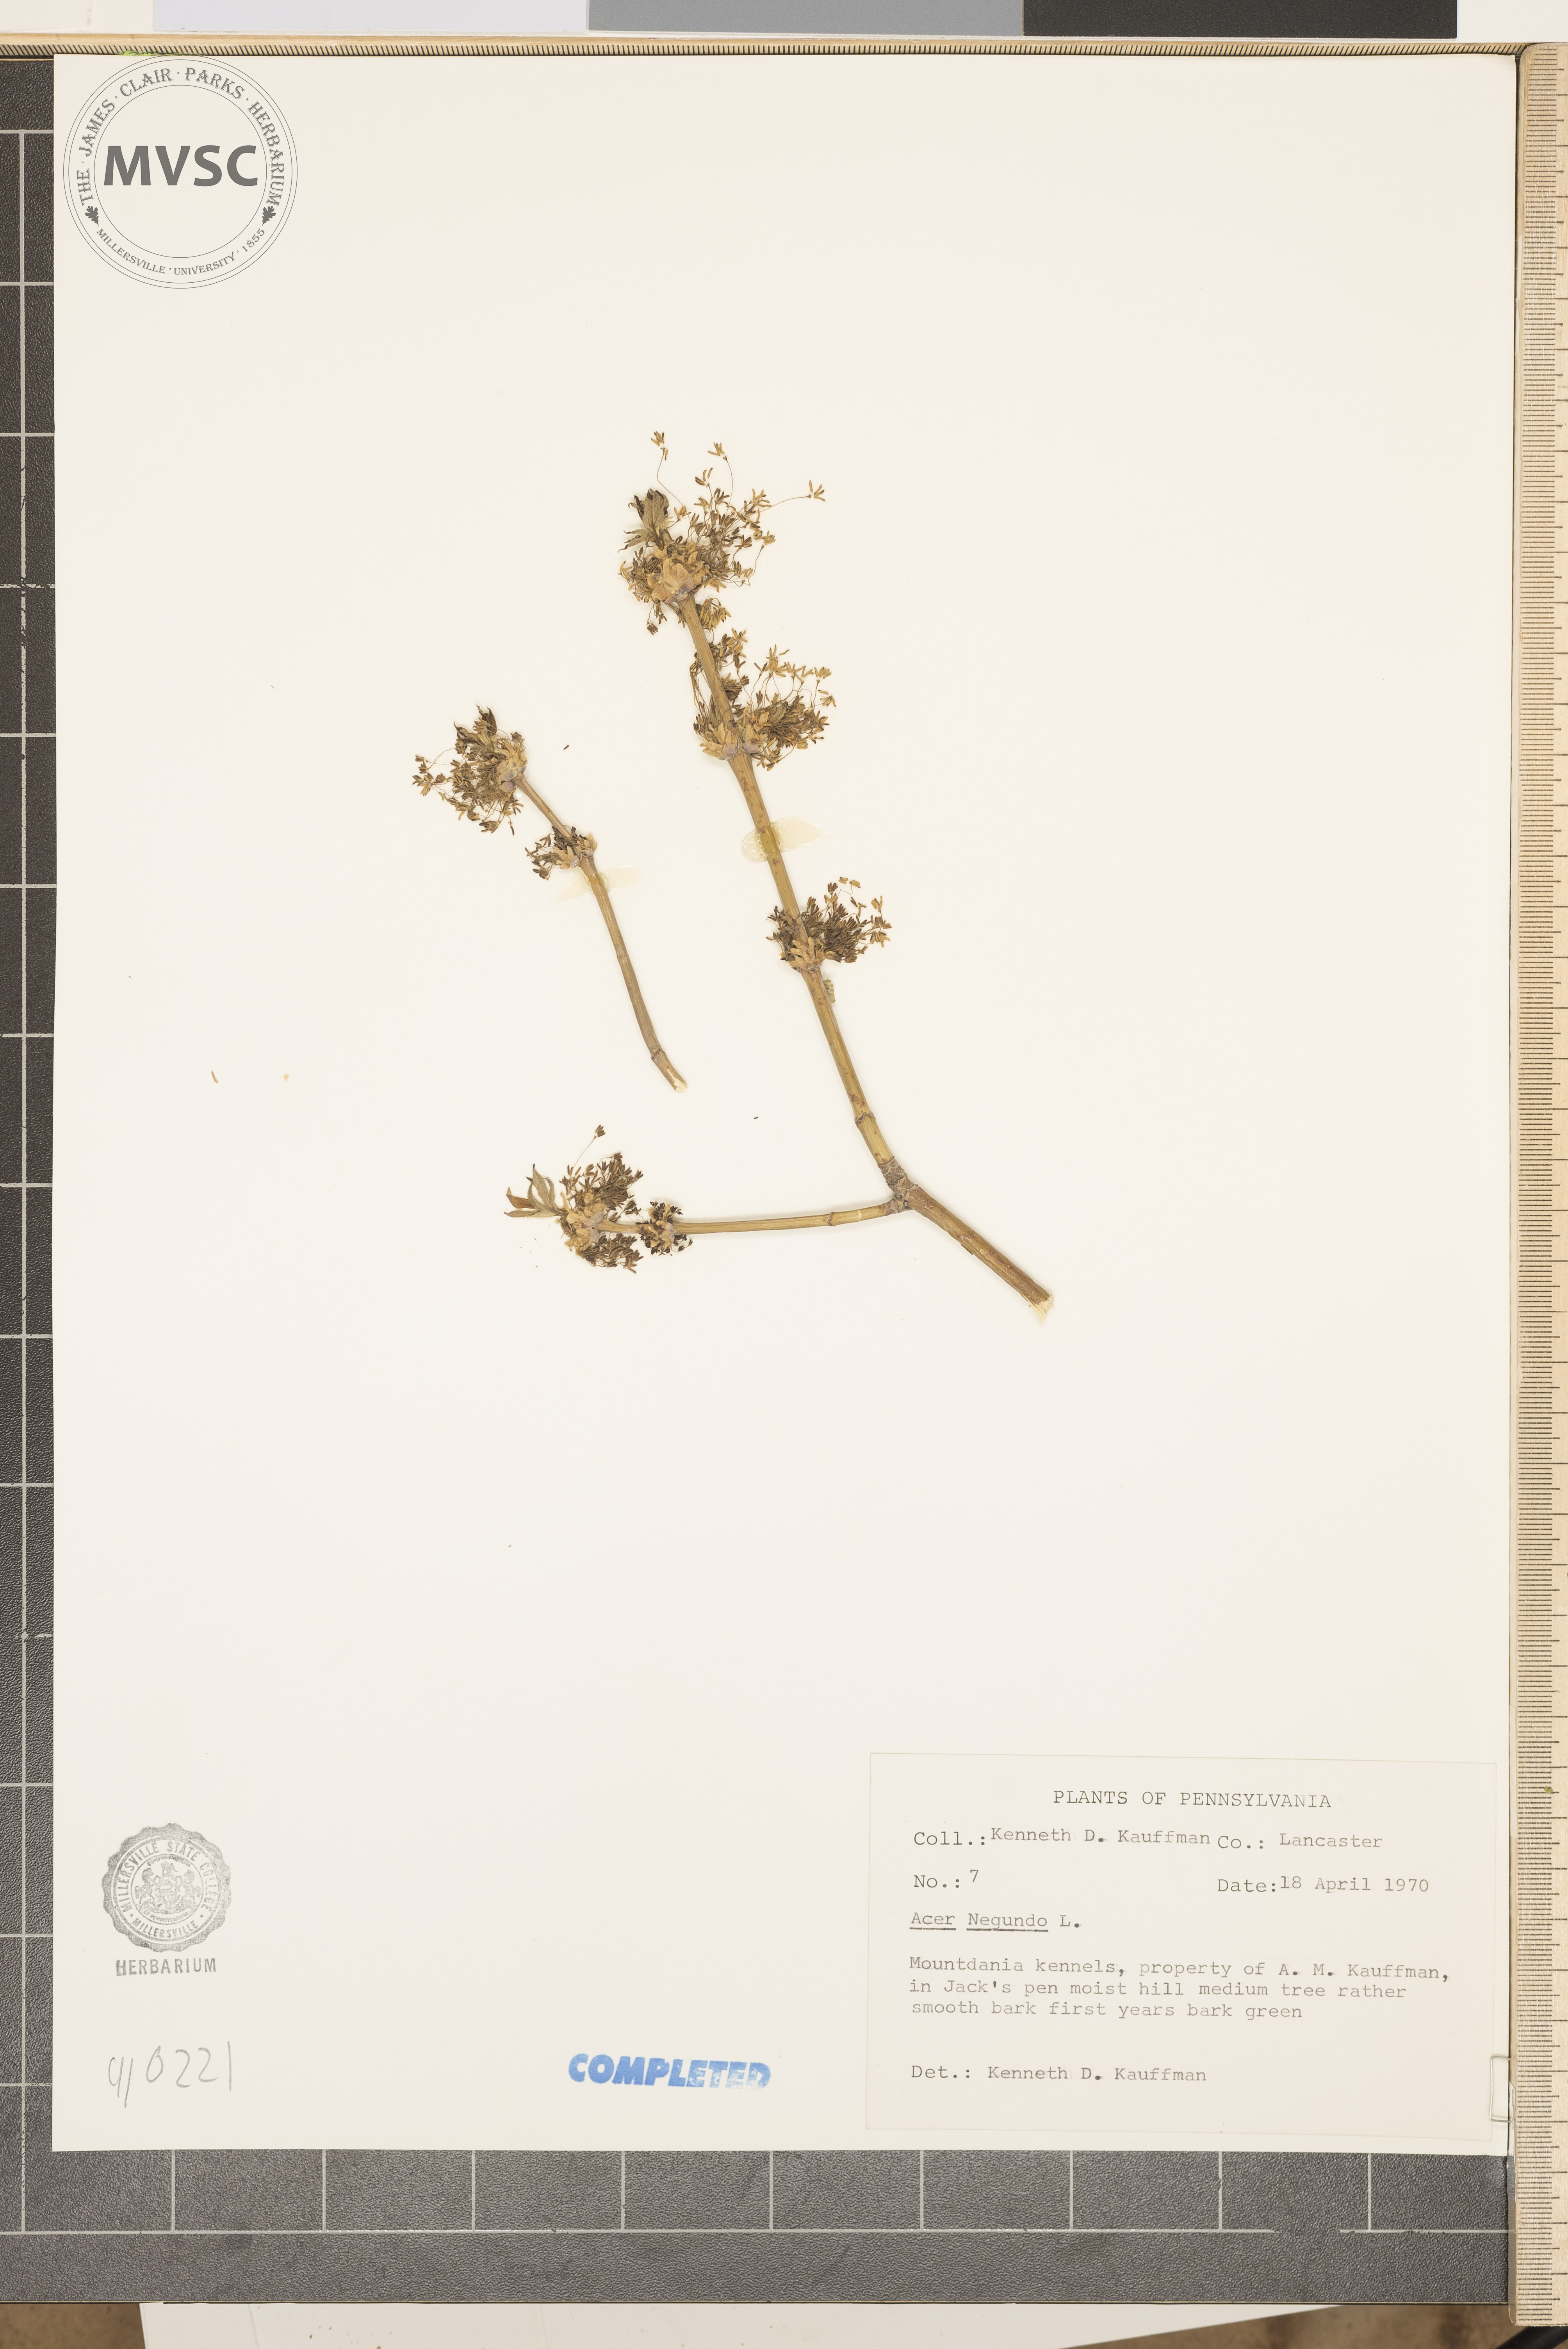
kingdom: Plantae
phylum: Tracheophyta
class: Magnoliopsida
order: Sapindales
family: Sapindaceae
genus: Acer
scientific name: Acer negundo
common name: Ashleaf maple
